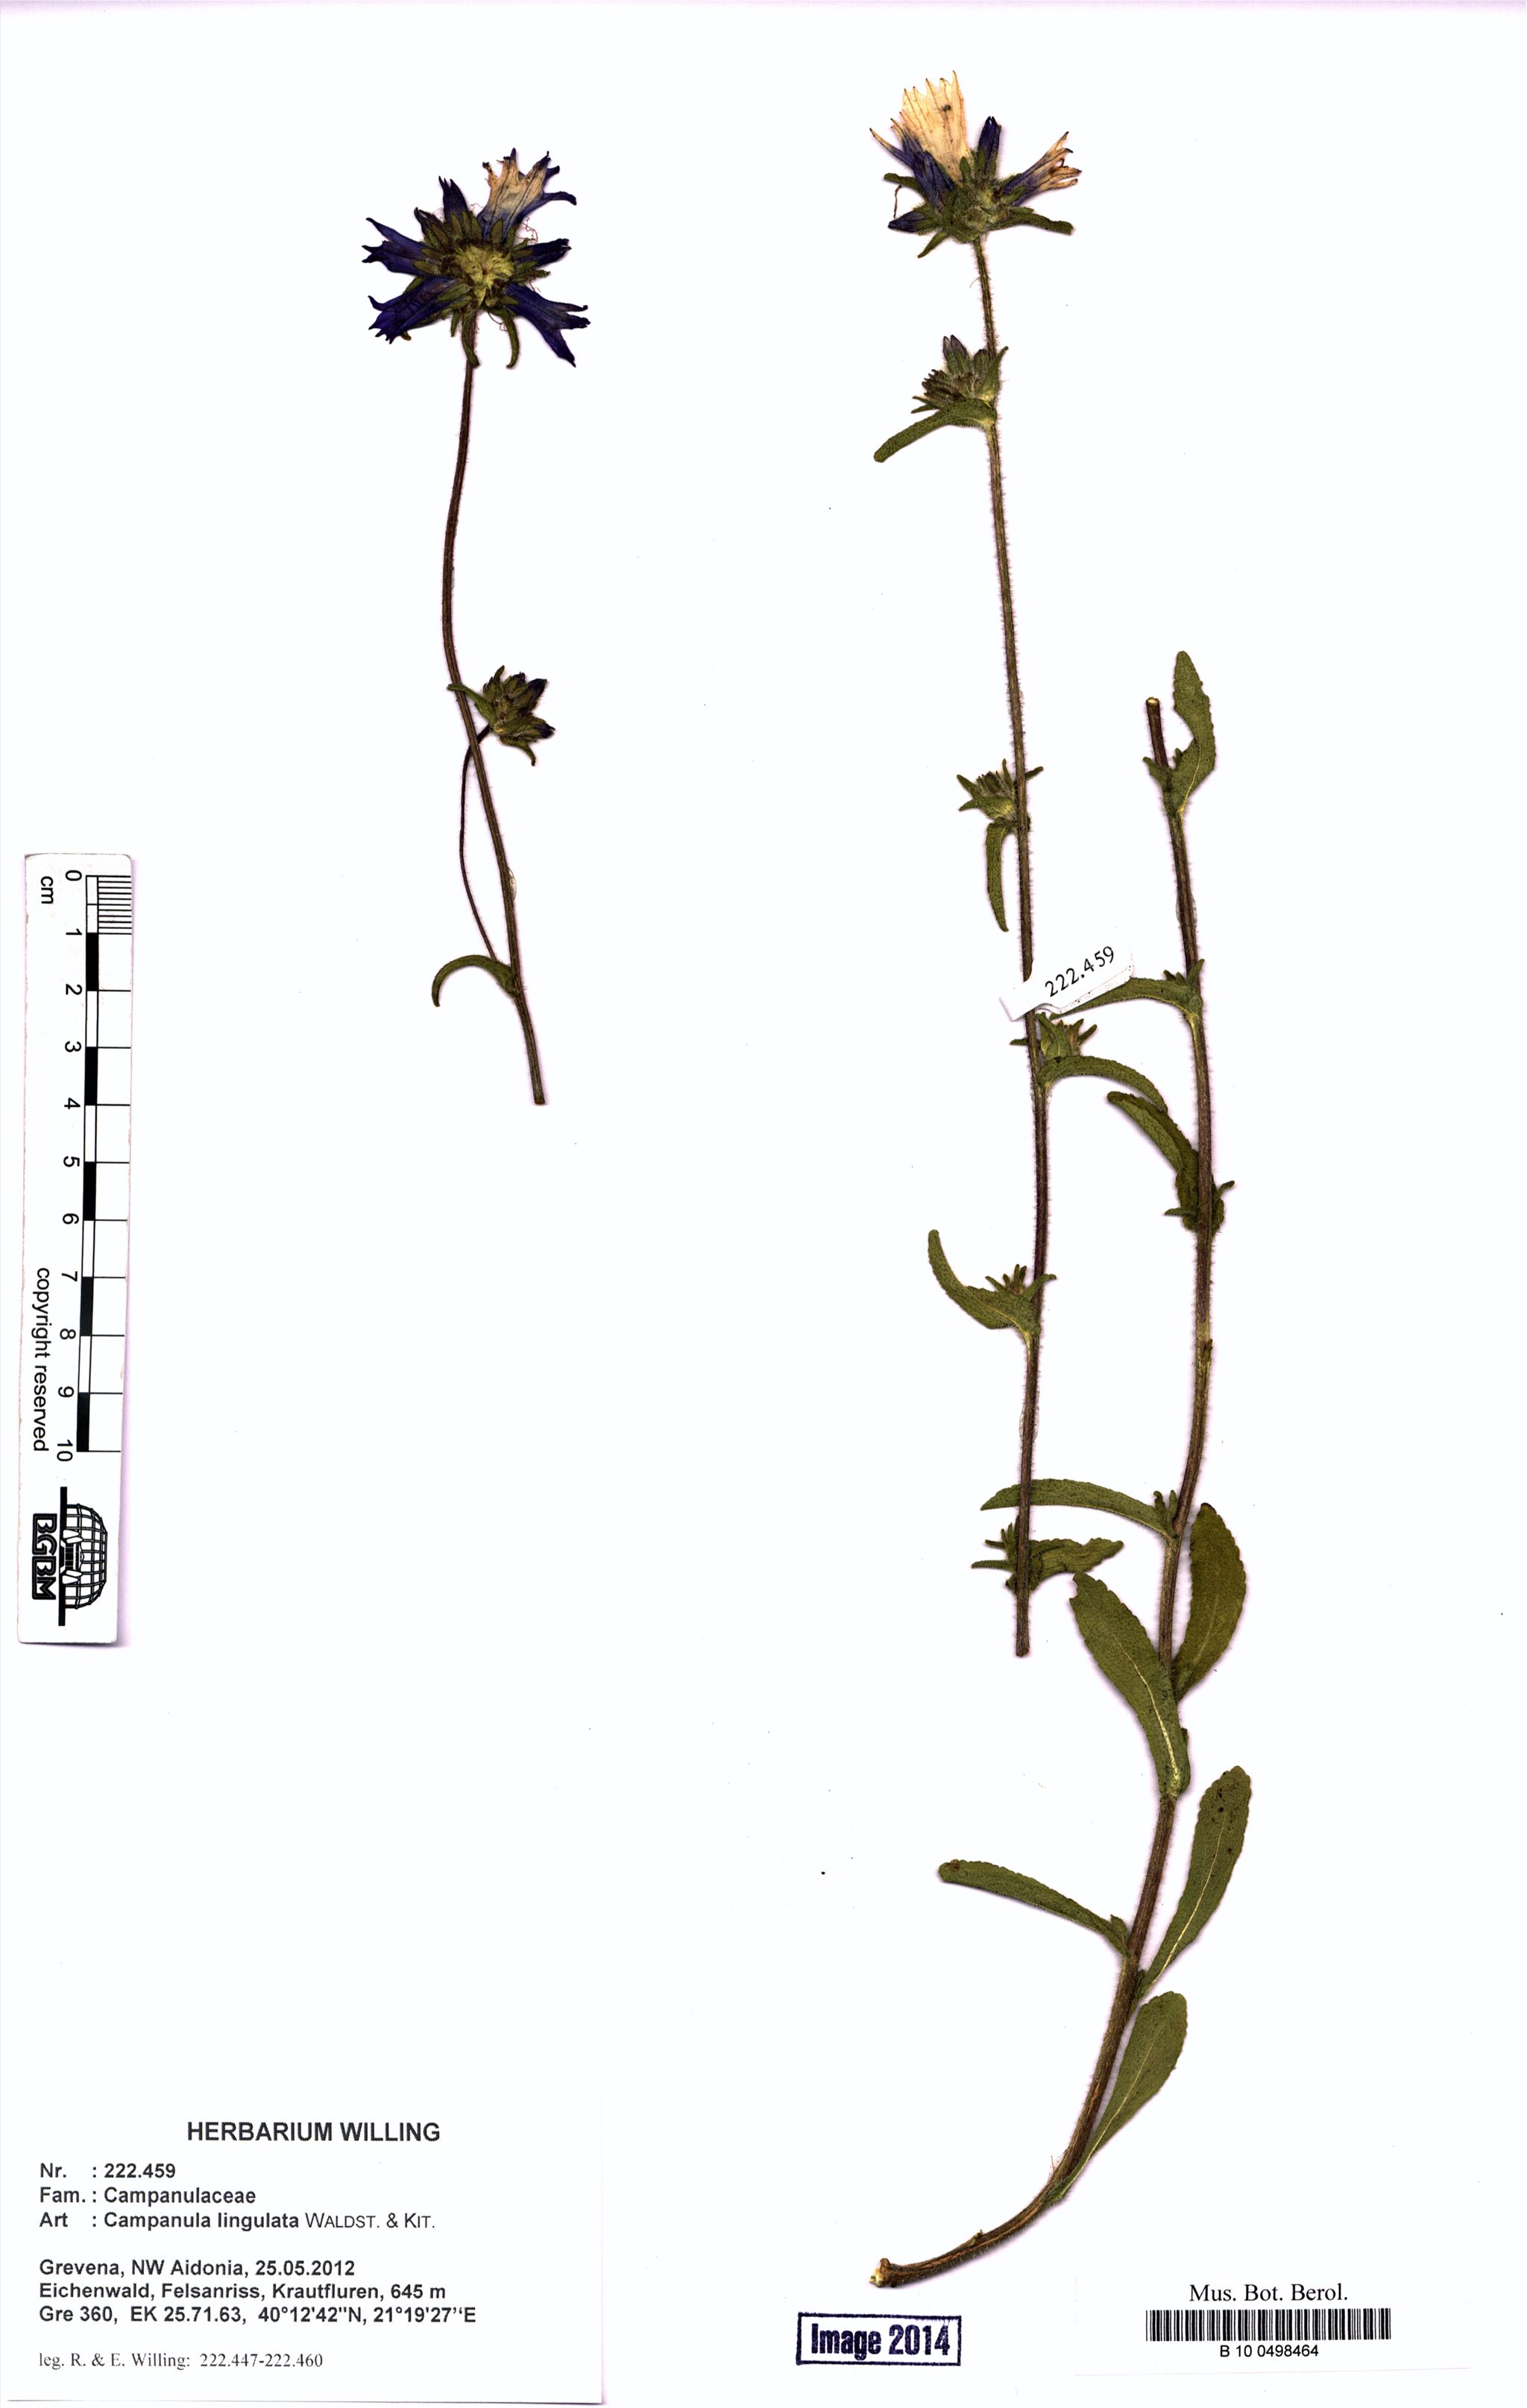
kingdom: Plantae
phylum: Tracheophyta
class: Magnoliopsida
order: Asterales
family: Campanulaceae
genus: Campanula
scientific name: Campanula lingulata
